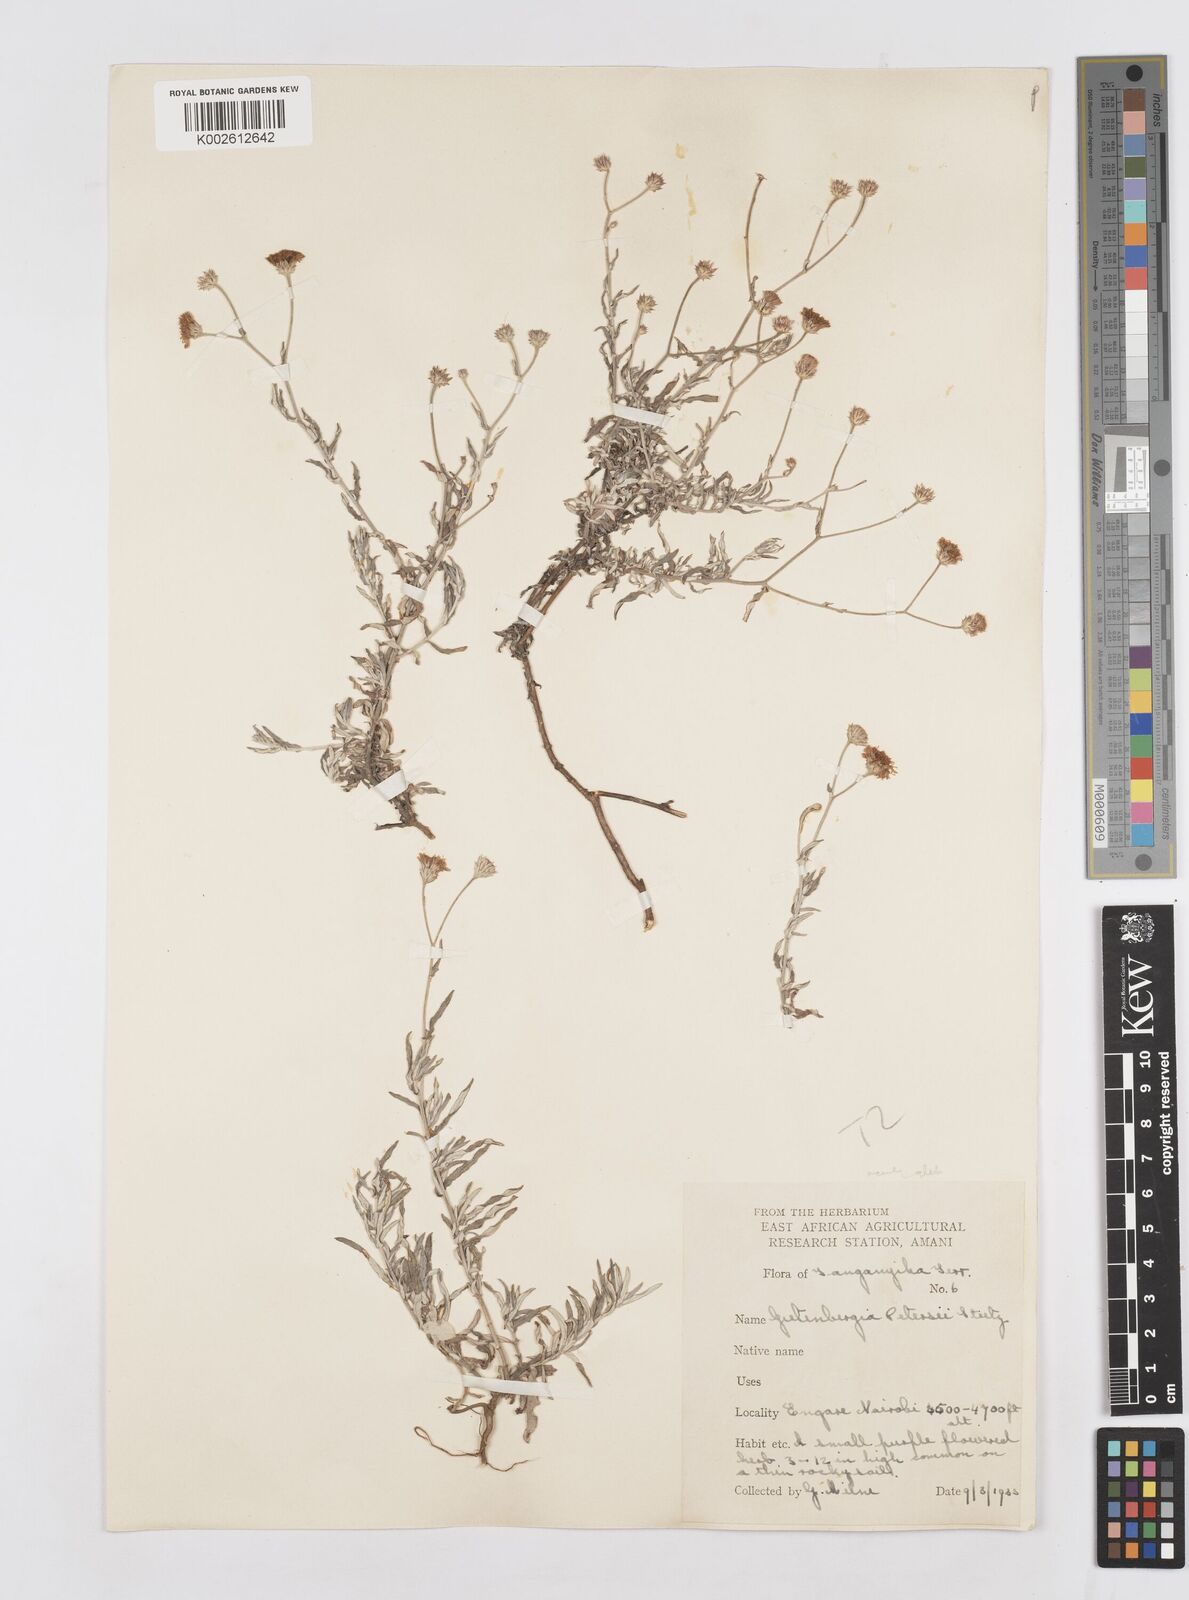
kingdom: Plantae
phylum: Tracheophyta
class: Magnoliopsida
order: Asterales
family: Asteraceae
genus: Gutenbergia
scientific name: Gutenbergia rueppellii
